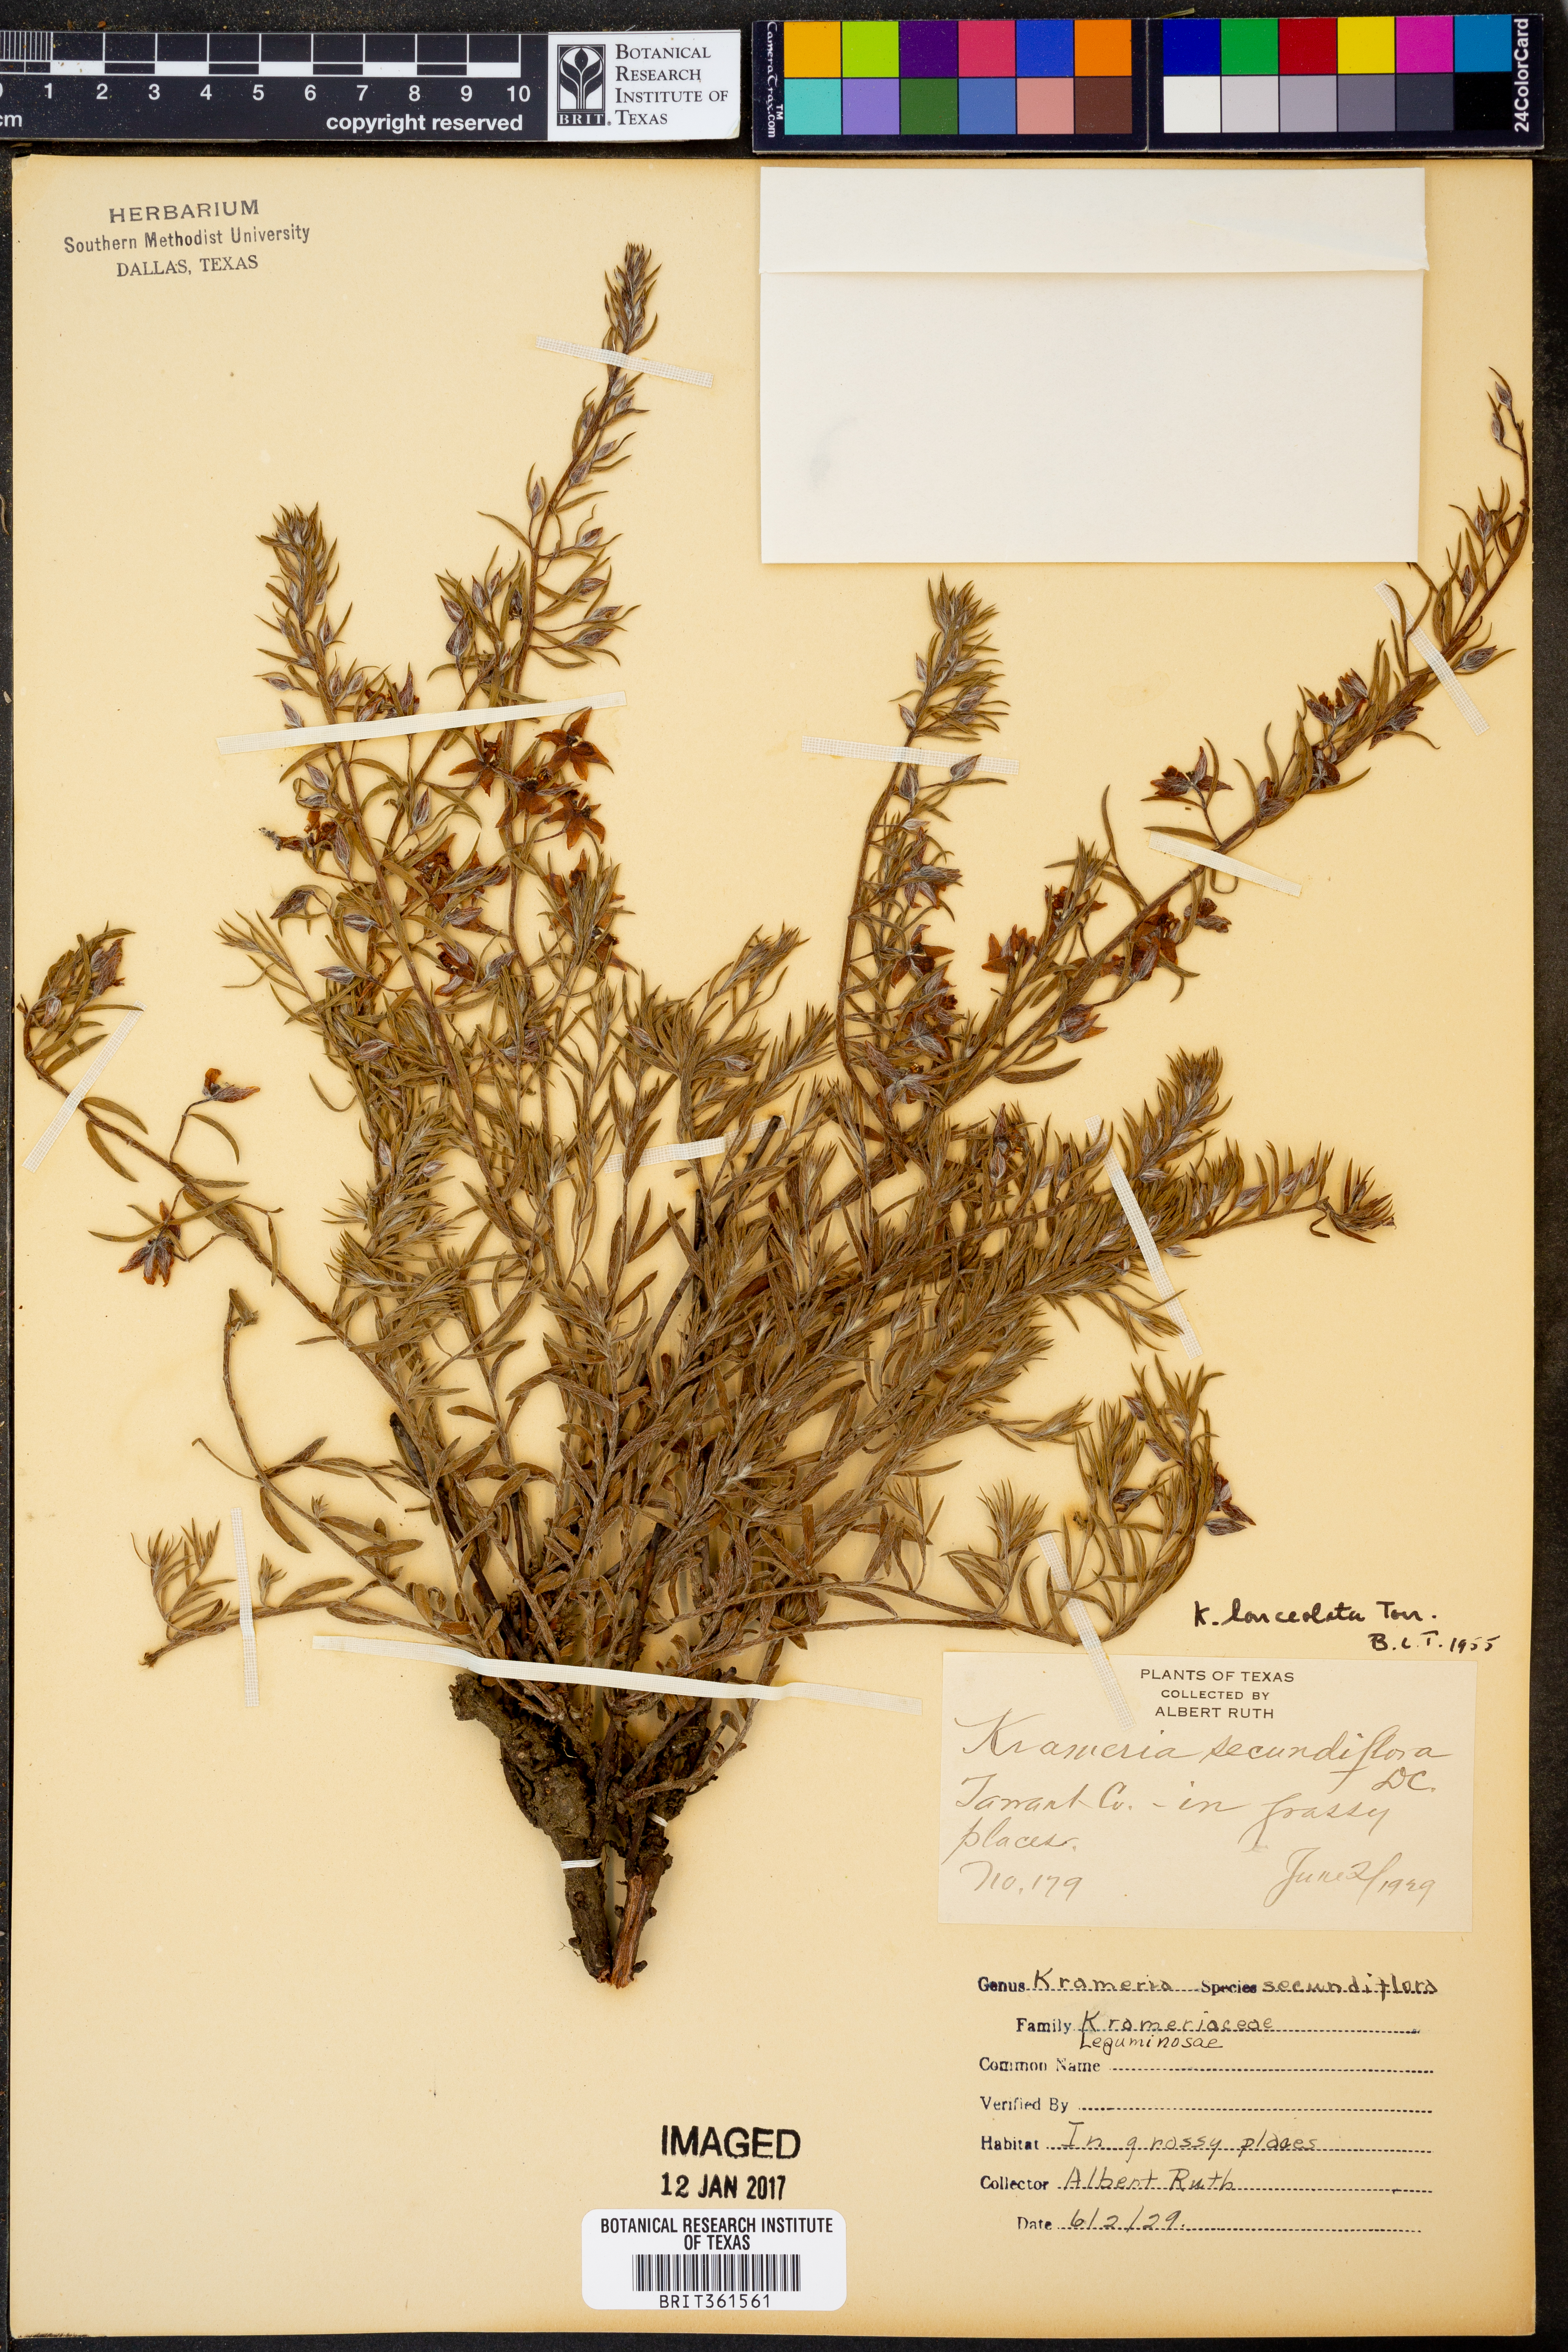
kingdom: Plantae
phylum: Tracheophyta
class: Magnoliopsida
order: Zygophyllales
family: Krameriaceae
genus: Krameria
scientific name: Krameria lanceolata
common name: Ratany
